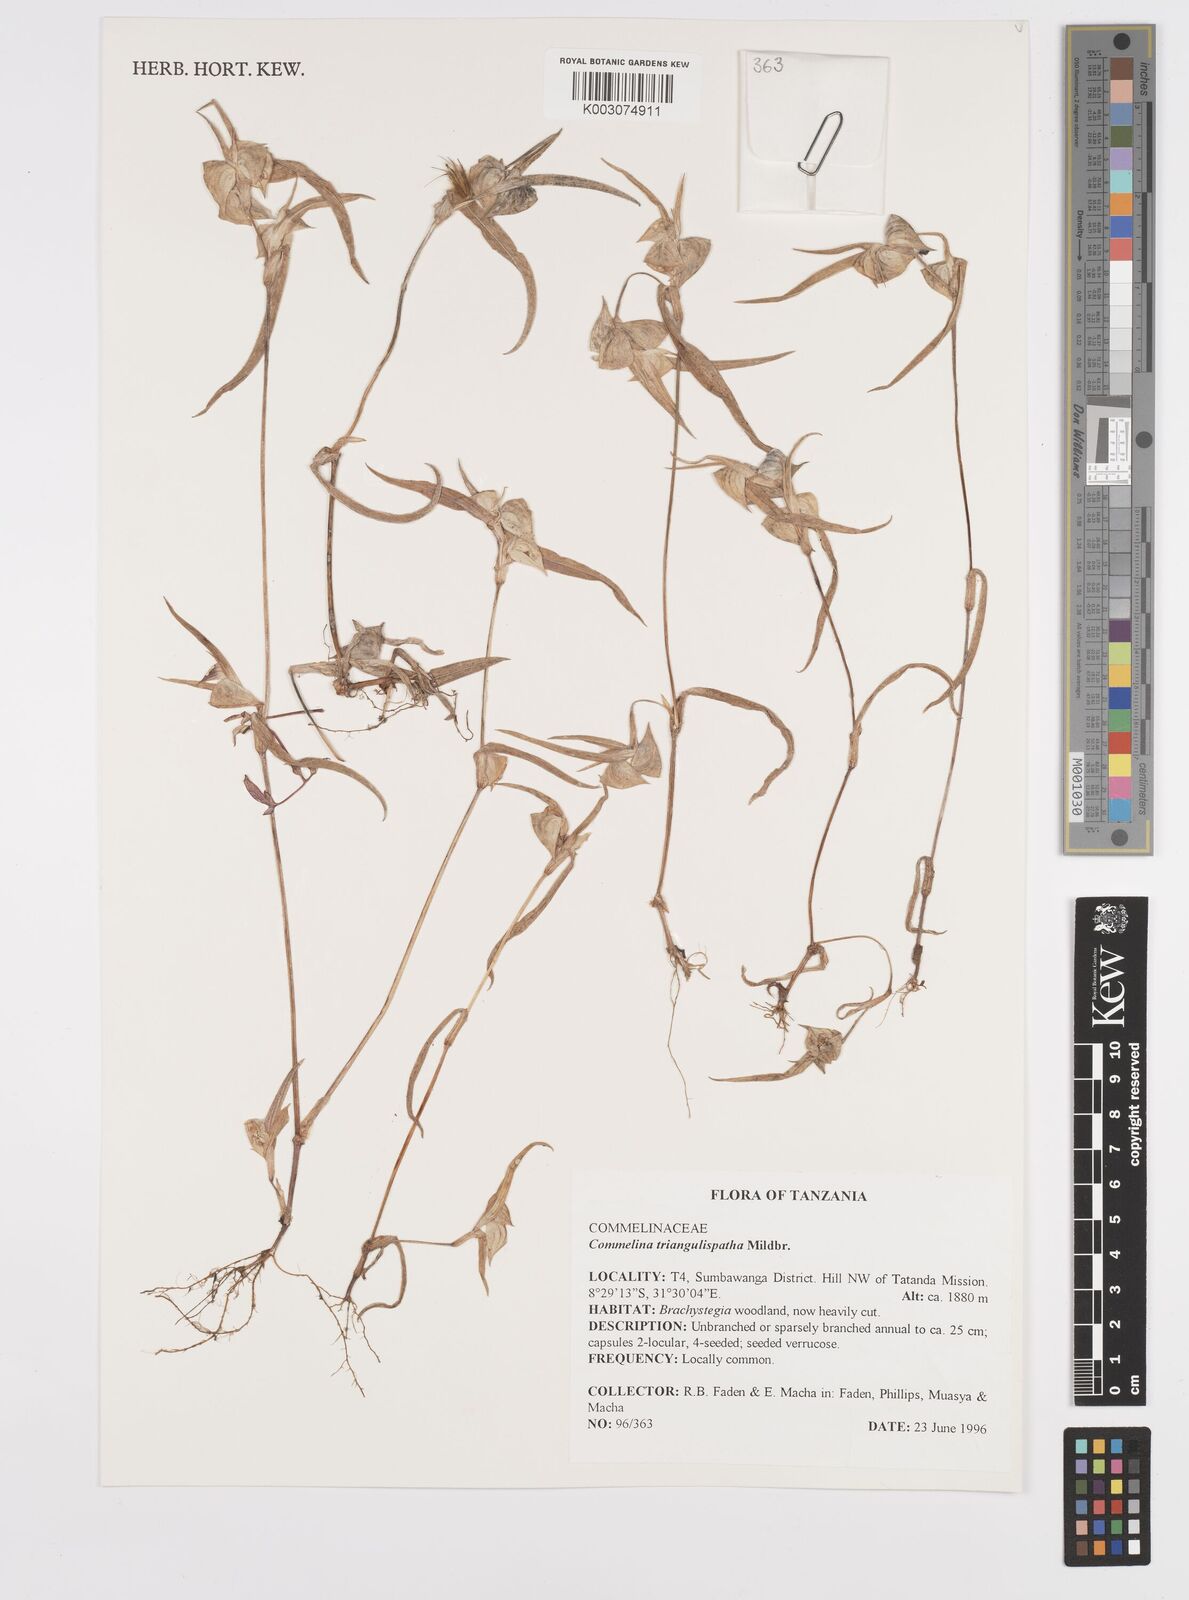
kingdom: Plantae
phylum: Tracheophyta
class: Liliopsida
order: Commelinales
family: Commelinaceae
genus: Commelina
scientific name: Commelina triangulispatha
